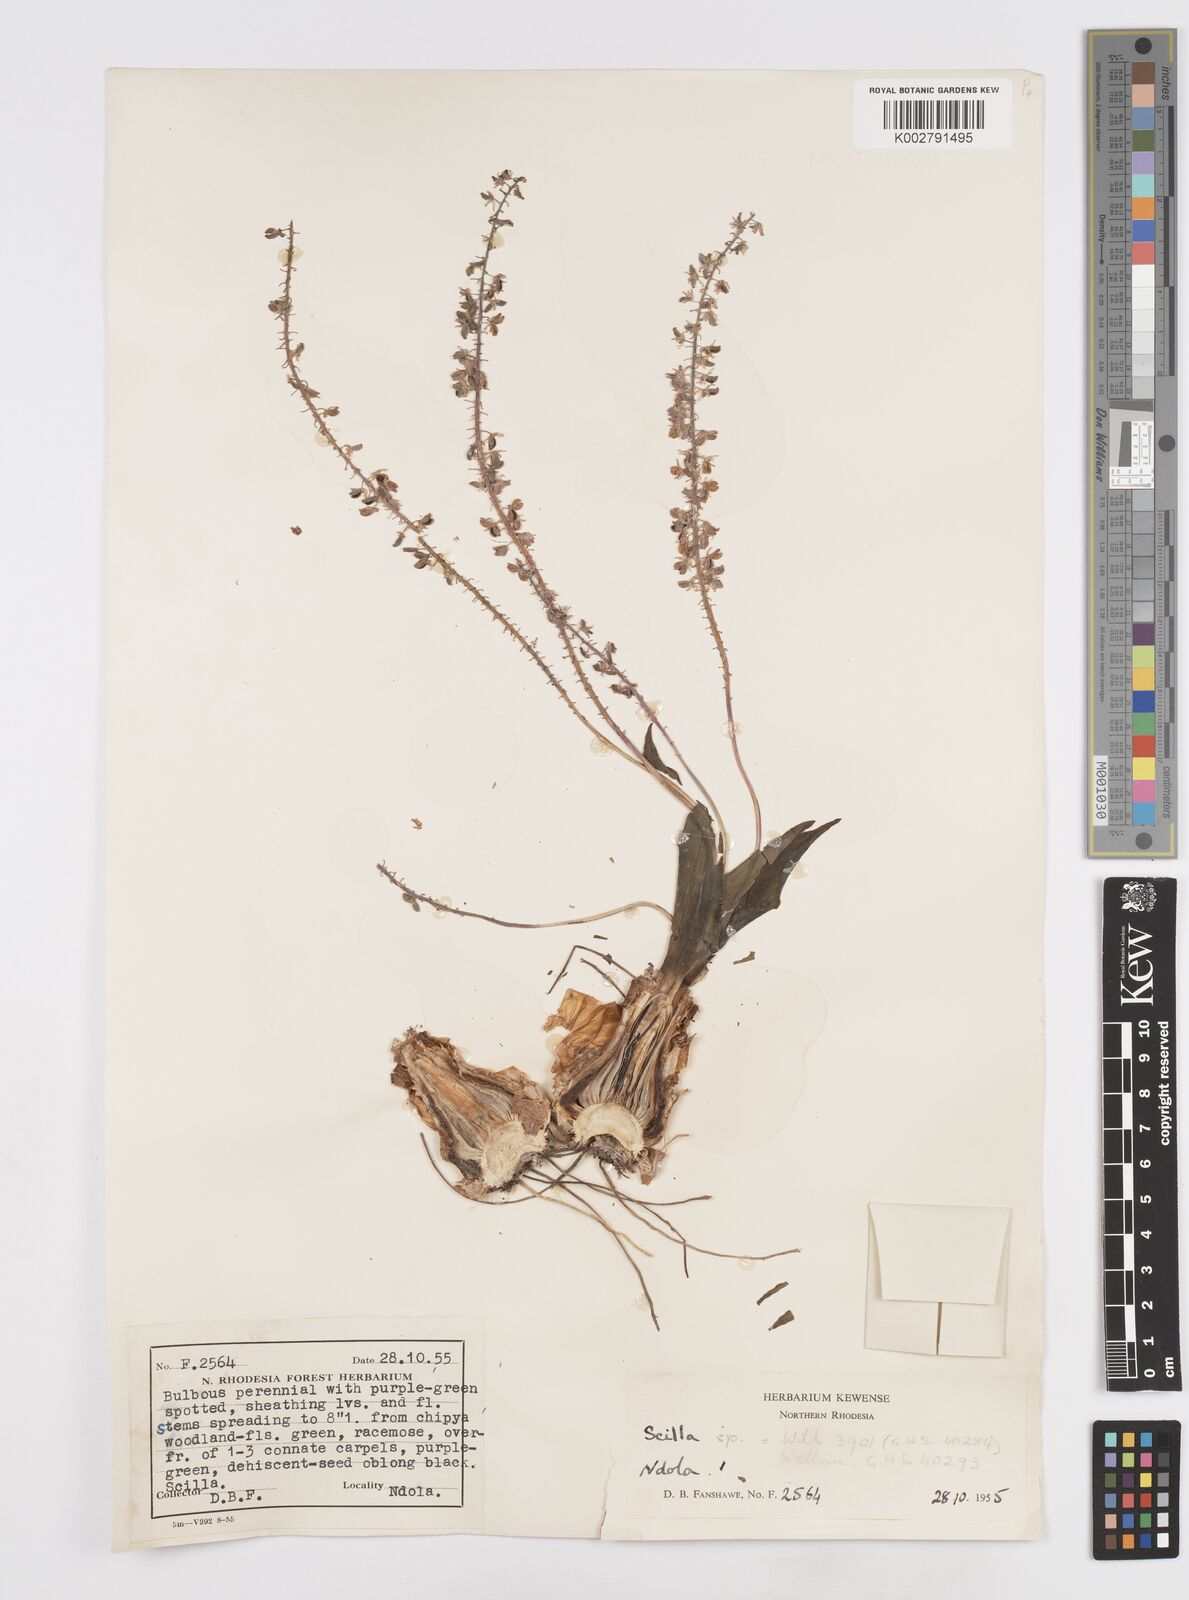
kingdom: Plantae
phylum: Tracheophyta
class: Liliopsida
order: Asparagales
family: Asparagaceae
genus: Scilla
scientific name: Scilla
